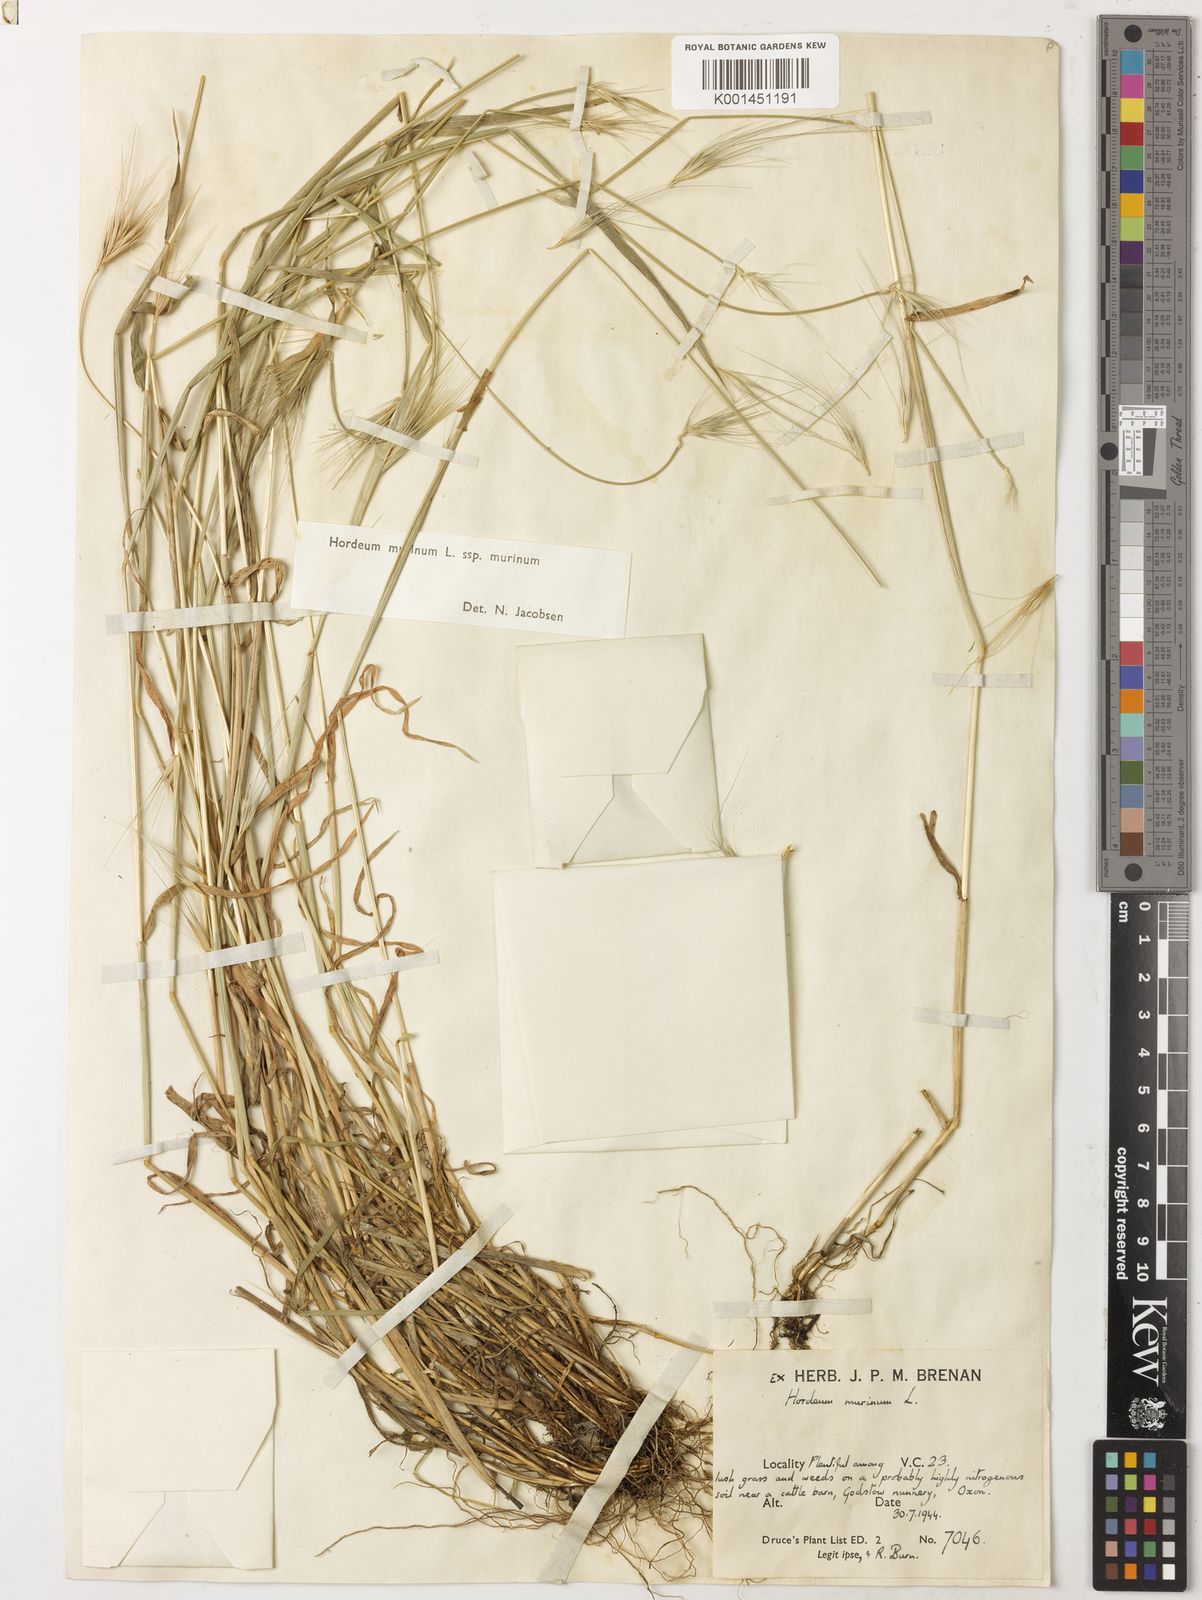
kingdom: Plantae
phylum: Tracheophyta
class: Liliopsida
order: Poales
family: Poaceae
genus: Hordeum
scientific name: Hordeum murinum
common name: Wall barley
